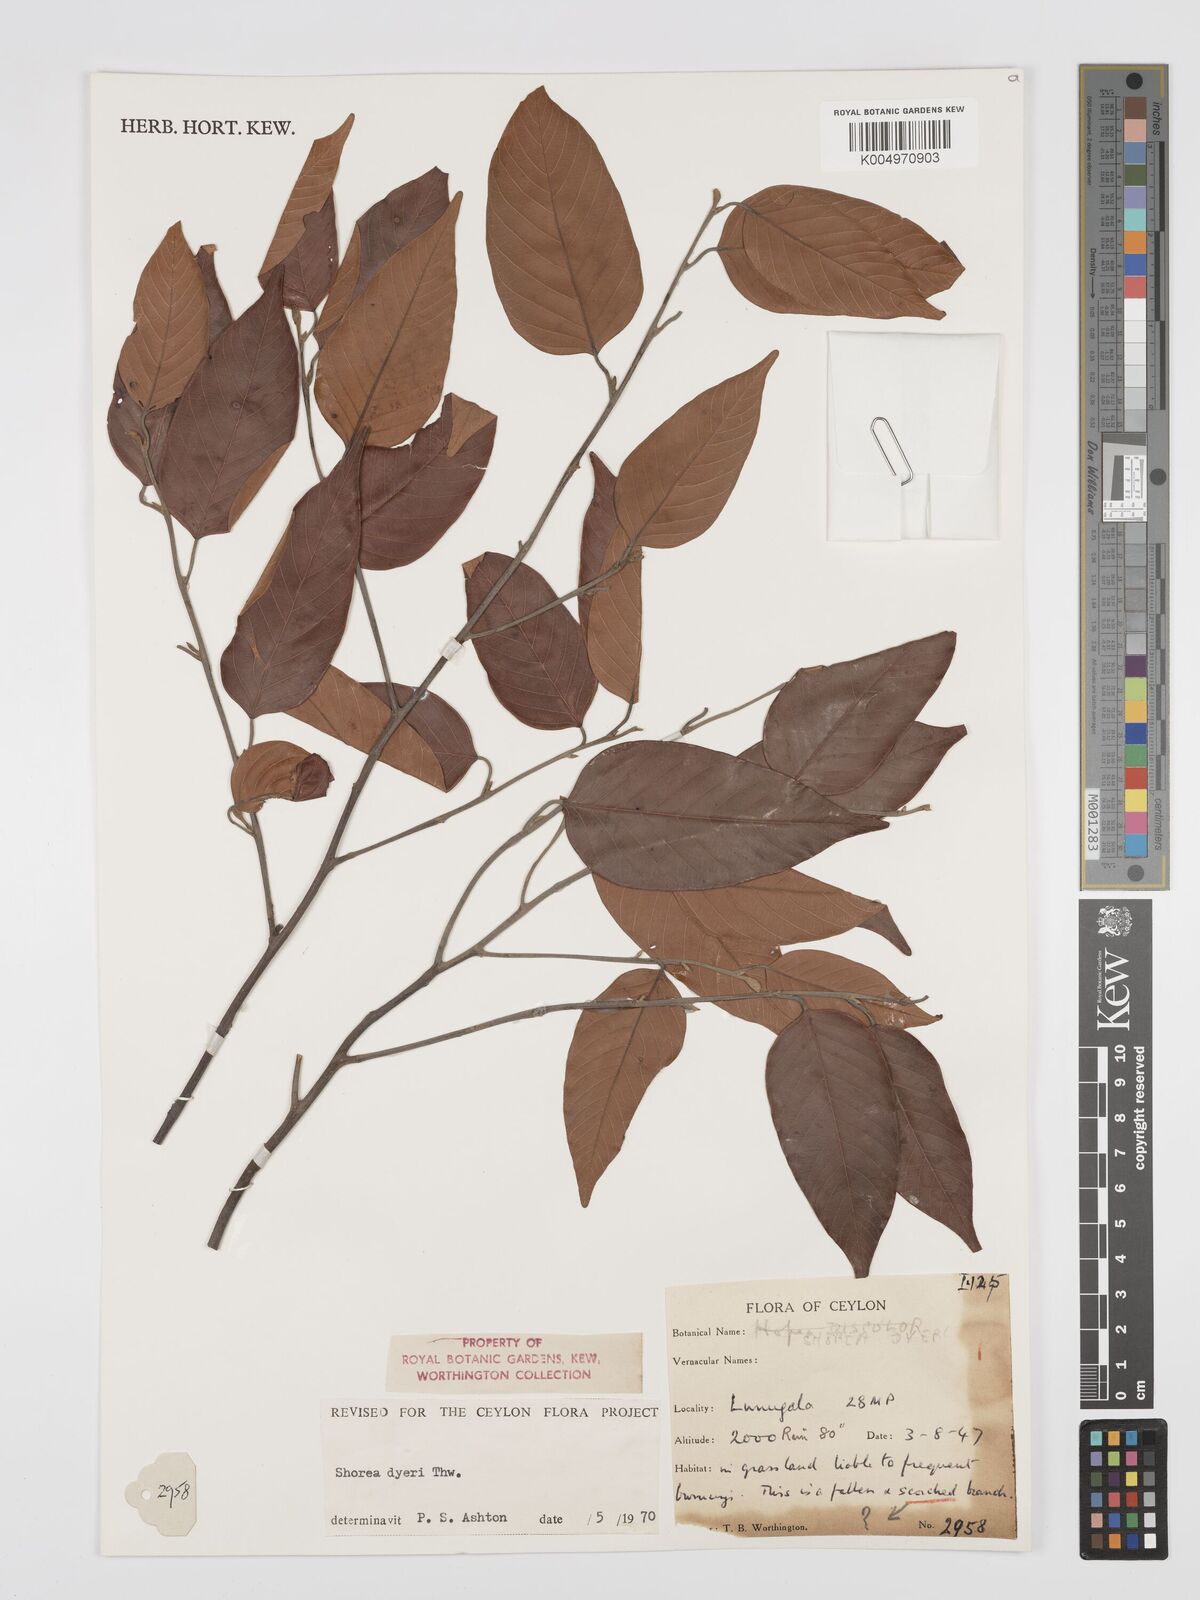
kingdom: Plantae
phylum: Tracheophyta
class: Magnoliopsida
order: Malvales
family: Dipterocarpaceae
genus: Shorea
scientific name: Shorea dyeri
